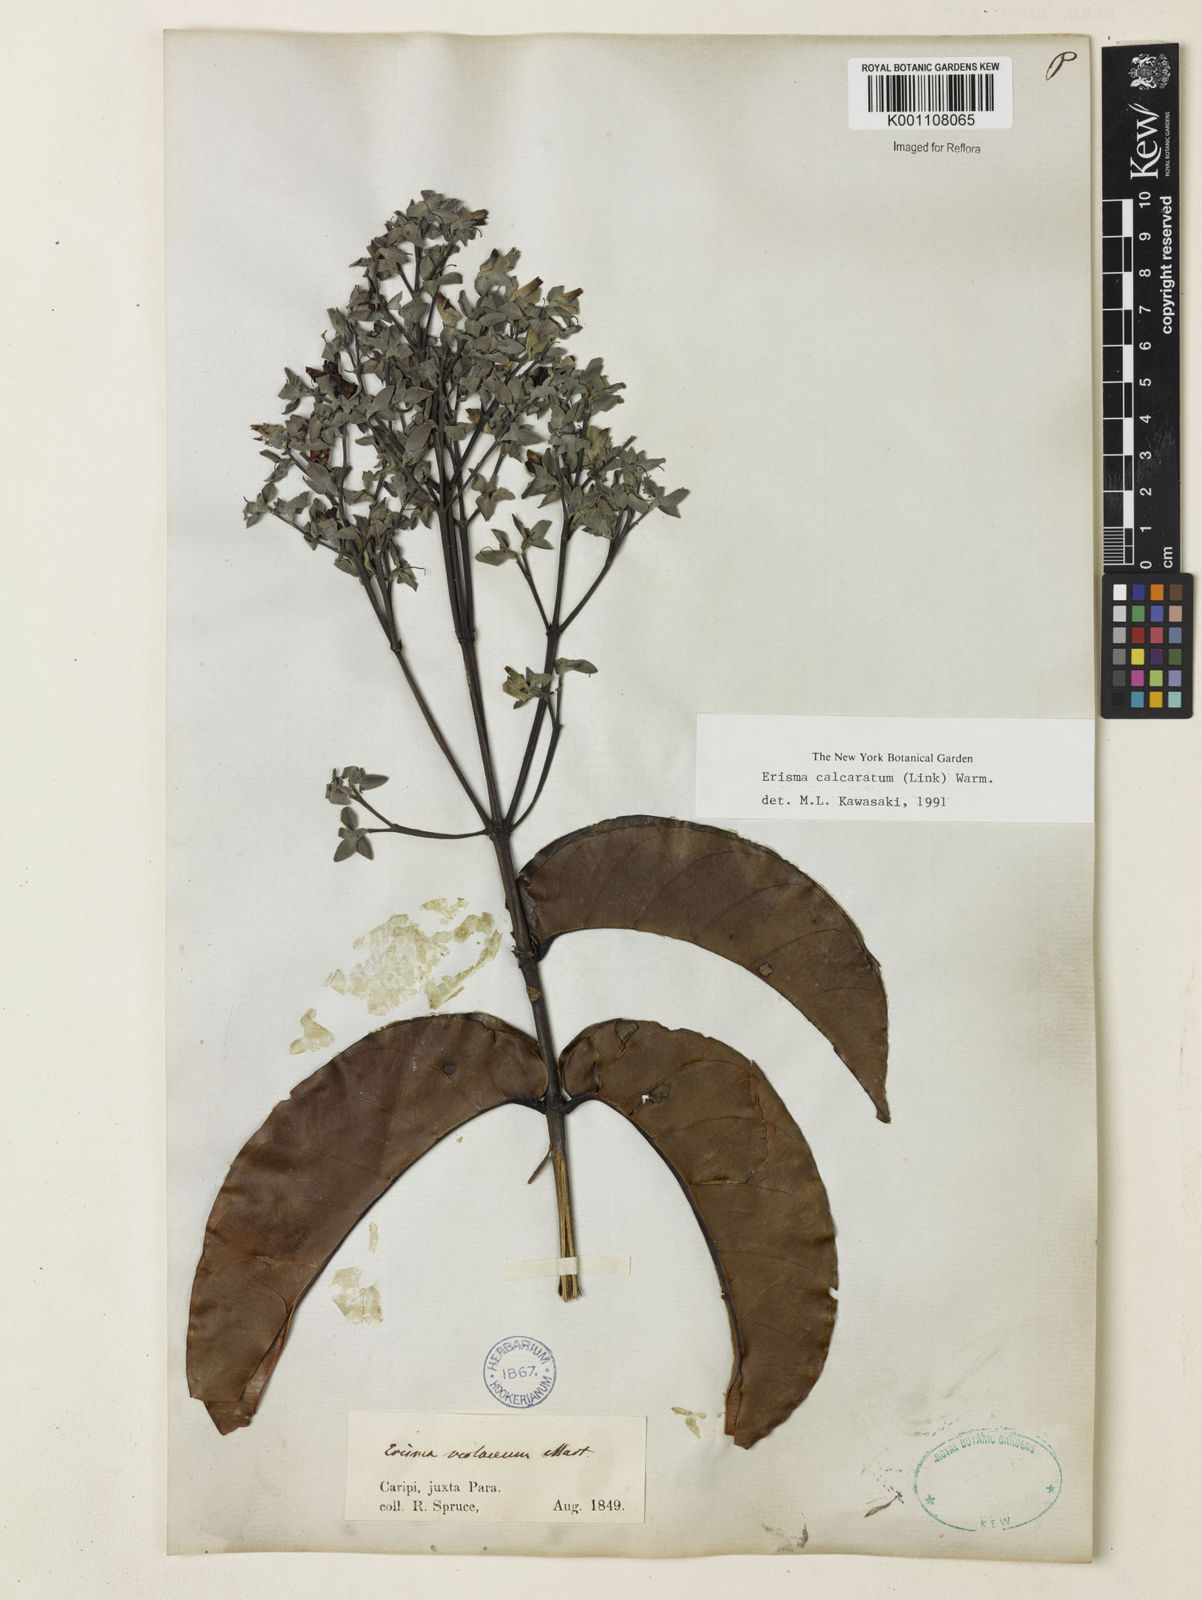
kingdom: Plantae
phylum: Tracheophyta
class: Magnoliopsida
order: Myrtales
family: Vochysiaceae
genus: Erisma
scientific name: Erisma calcaratum
